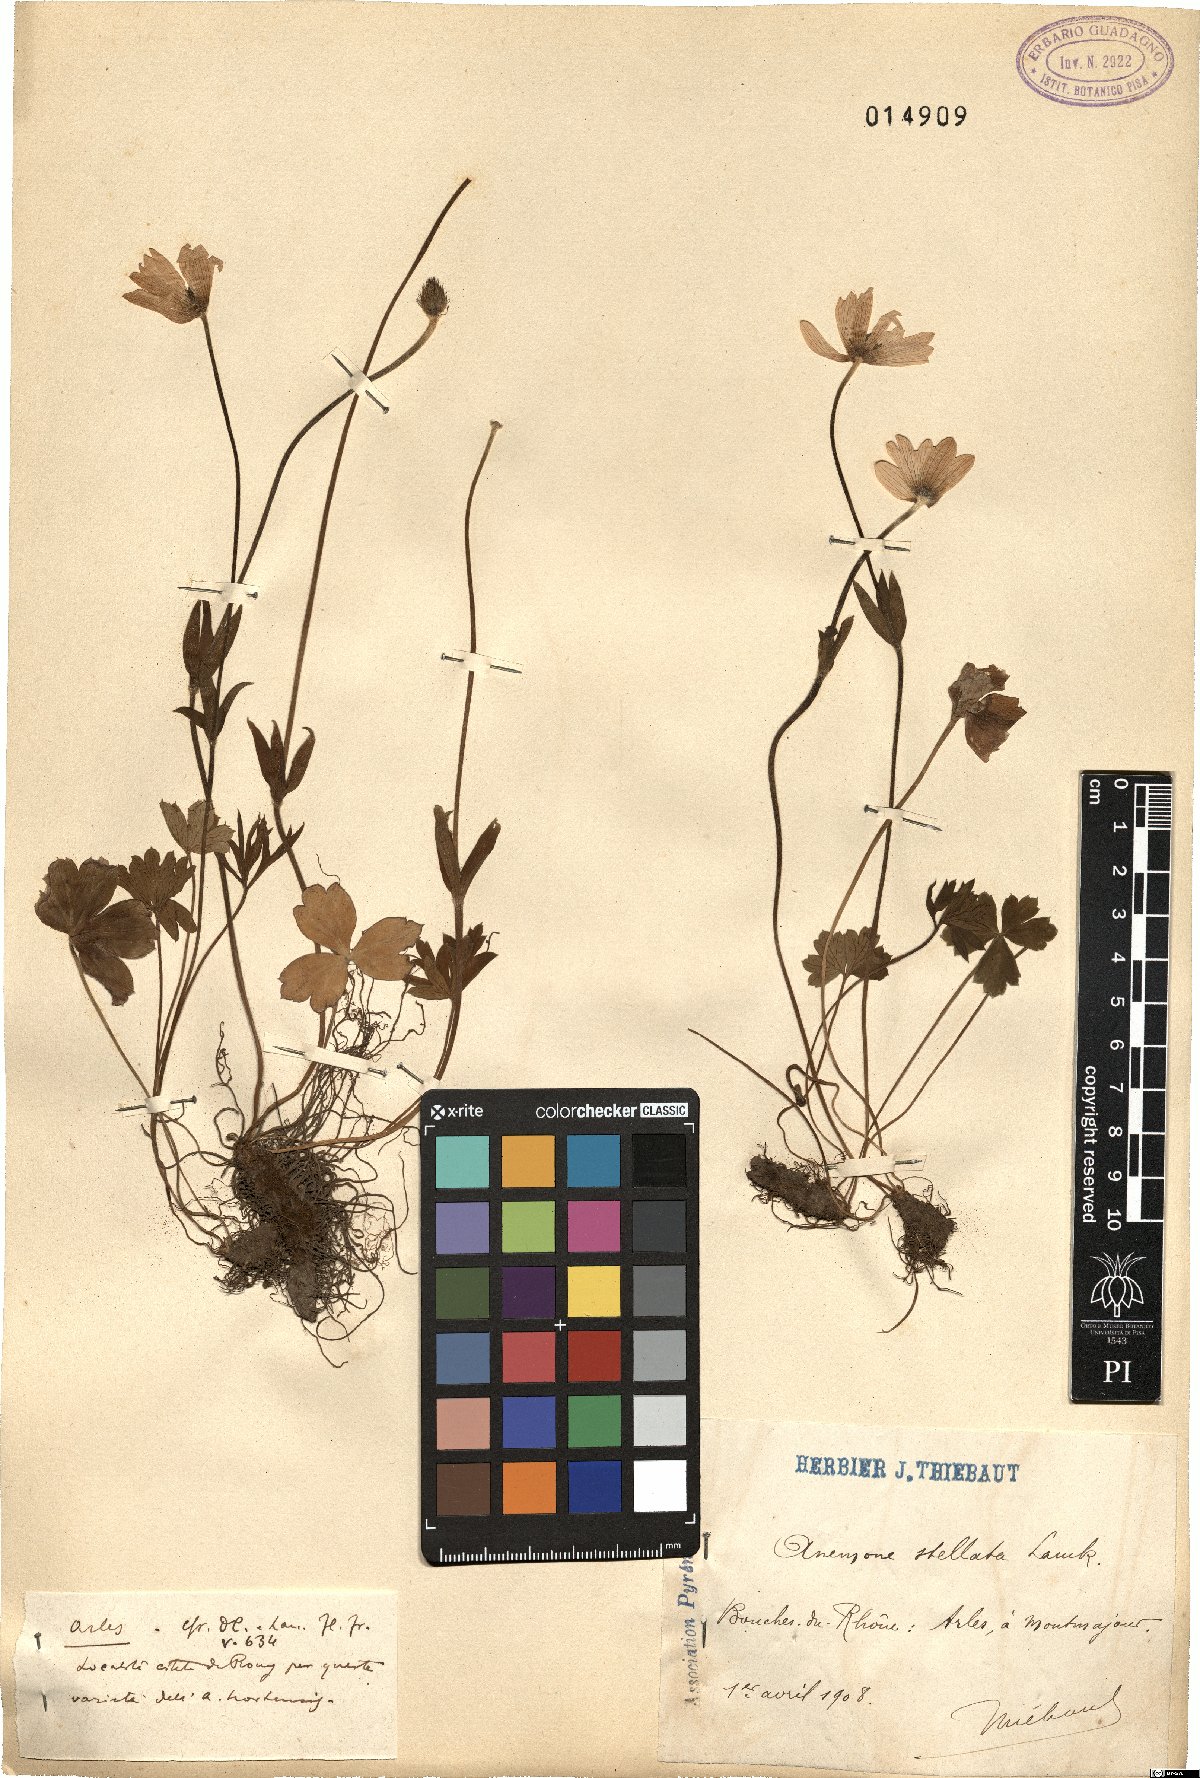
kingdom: Plantae
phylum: Tracheophyta
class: Magnoliopsida
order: Ranunculales
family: Ranunculaceae
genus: Anemone
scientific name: Anemone hortensis
